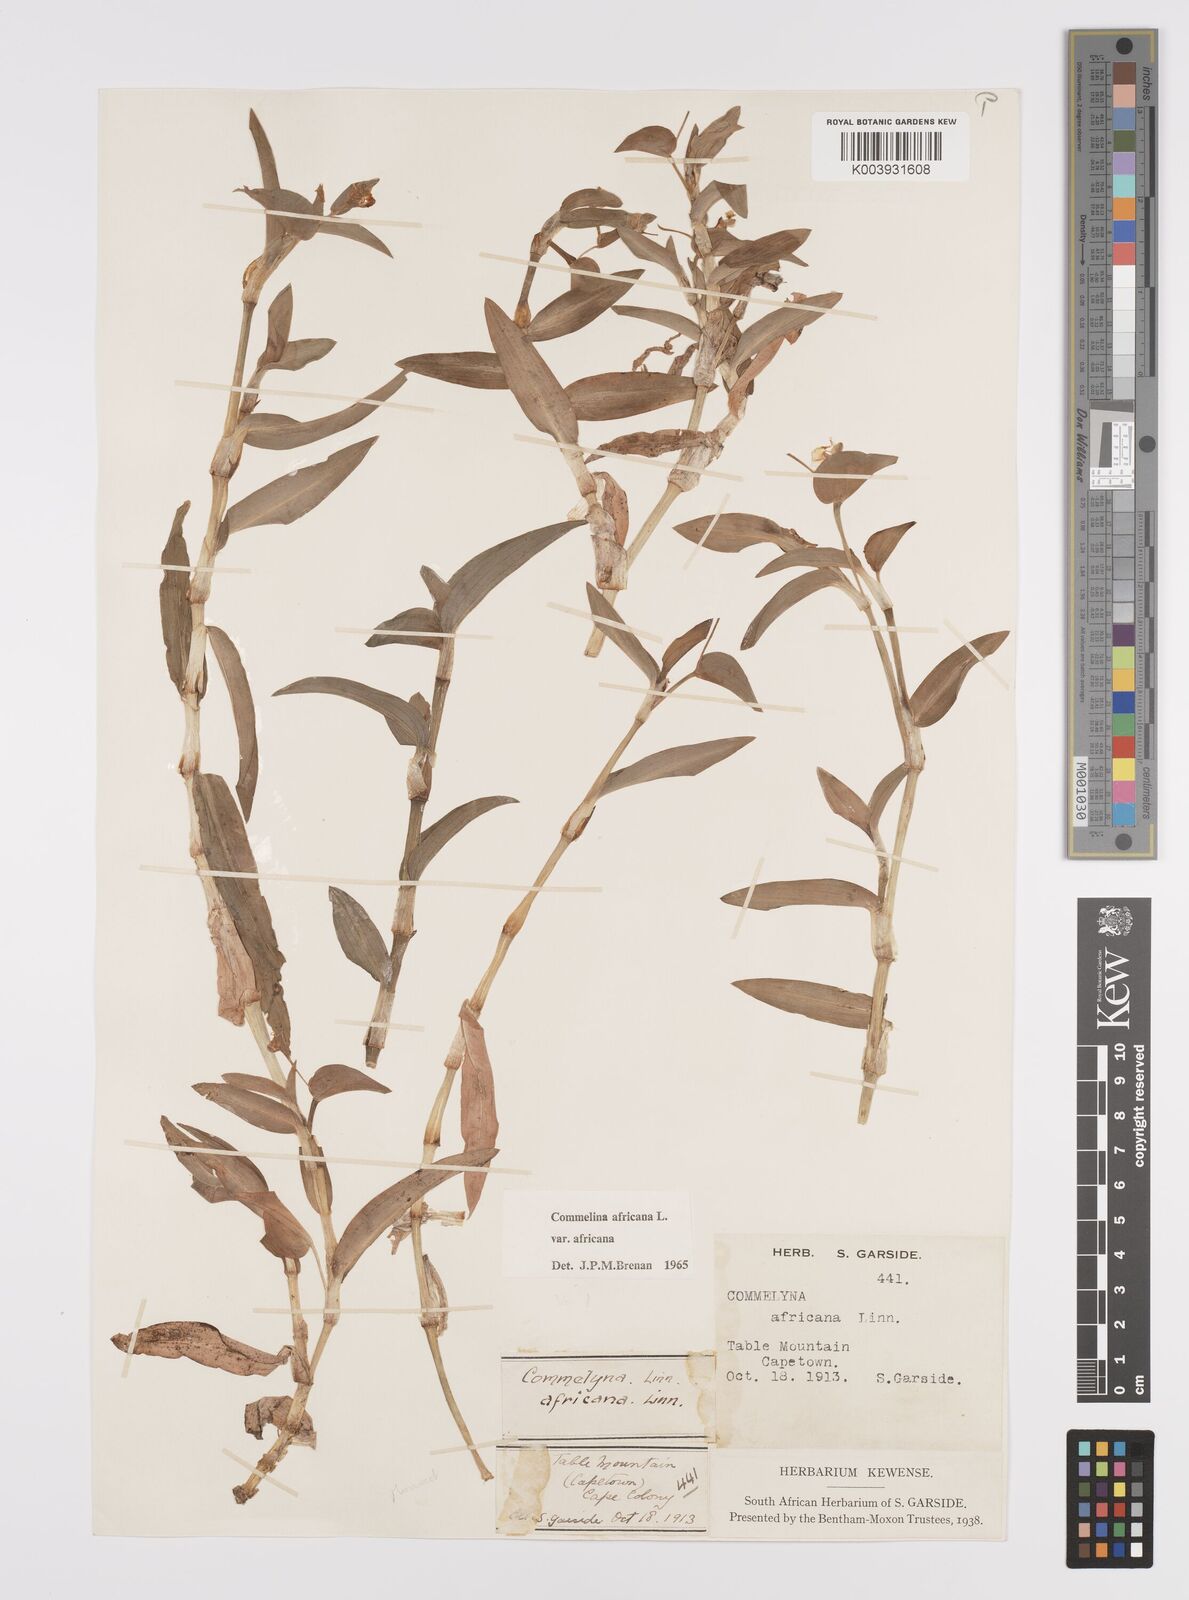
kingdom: Plantae
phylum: Tracheophyta
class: Liliopsida
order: Commelinales
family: Commelinaceae
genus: Commelina
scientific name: Commelina africana
